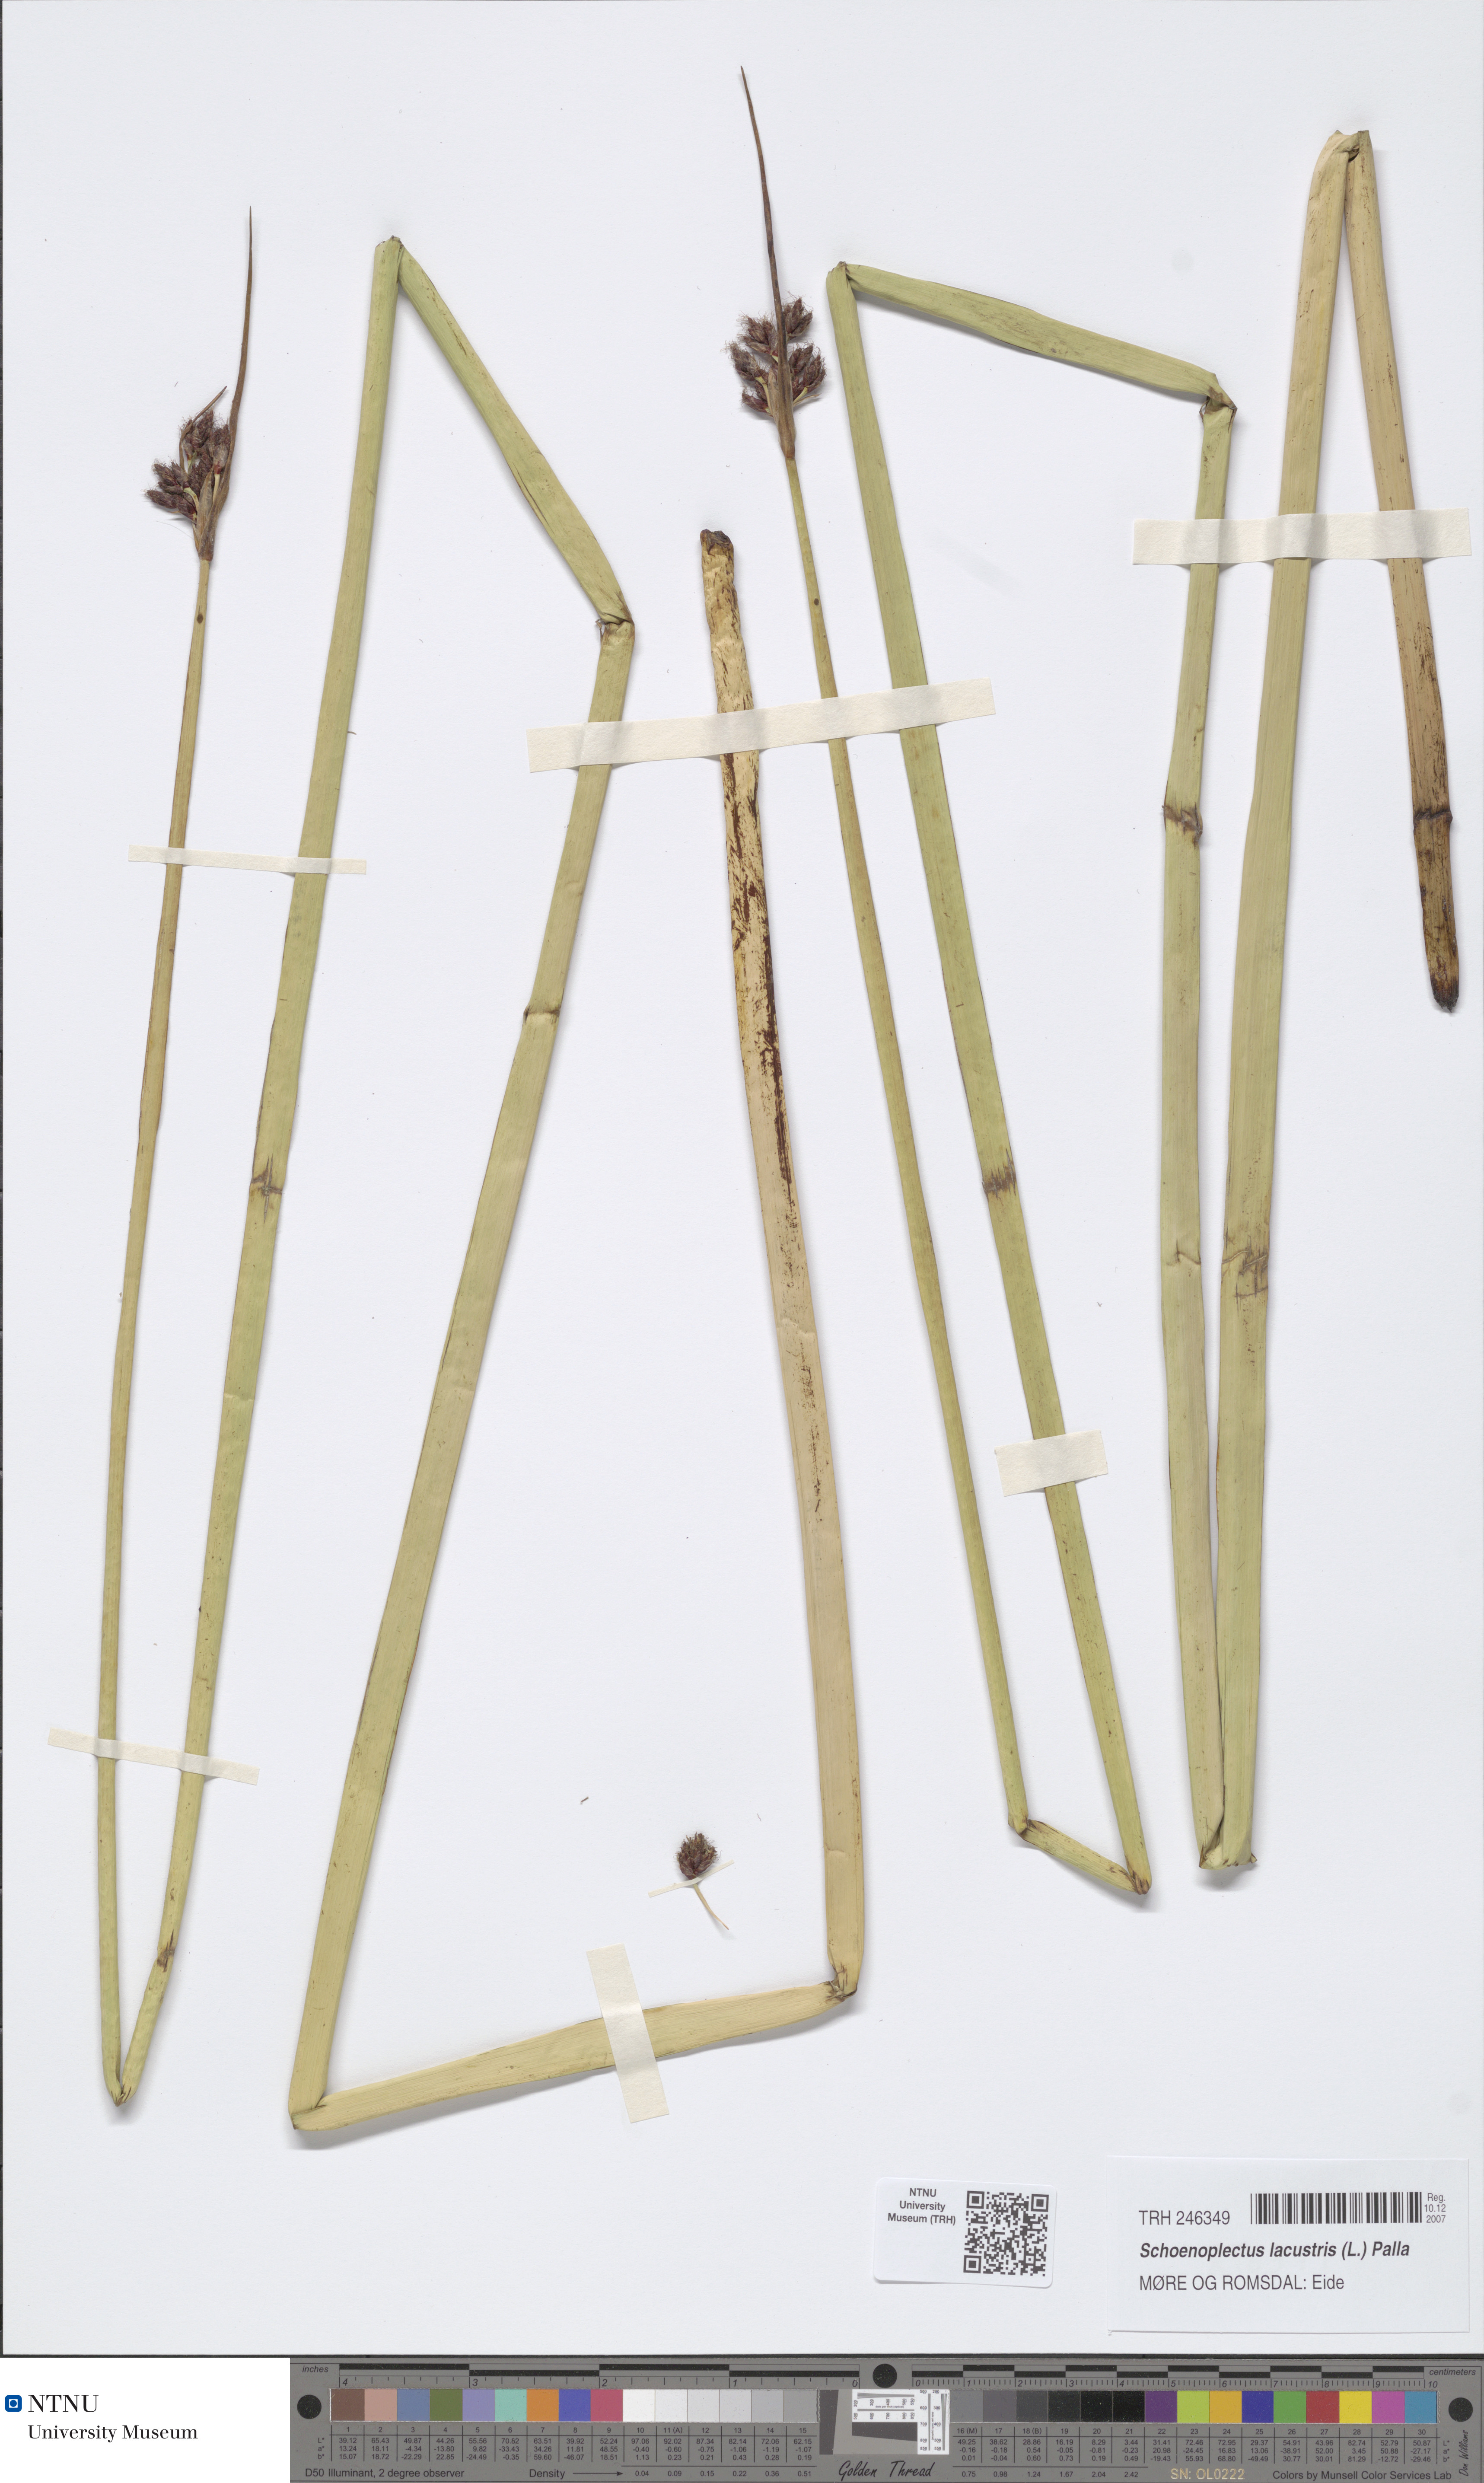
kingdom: Plantae
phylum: Tracheophyta
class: Liliopsida
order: Poales
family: Cyperaceae
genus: Schoenoplectus
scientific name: Schoenoplectus lacustris
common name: Common club-rush
